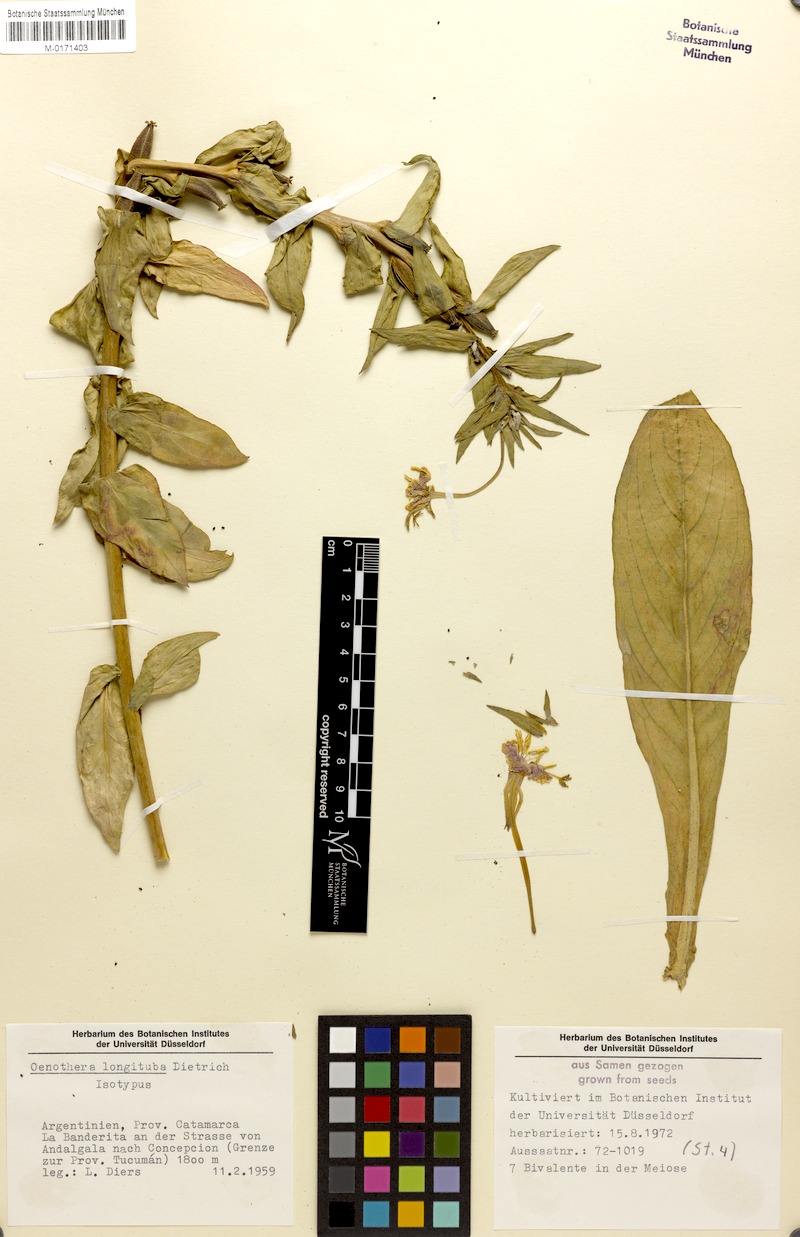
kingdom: Plantae
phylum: Tracheophyta
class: Magnoliopsida
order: Myrtales
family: Onagraceae
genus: Oenothera
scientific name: Oenothera longituba
